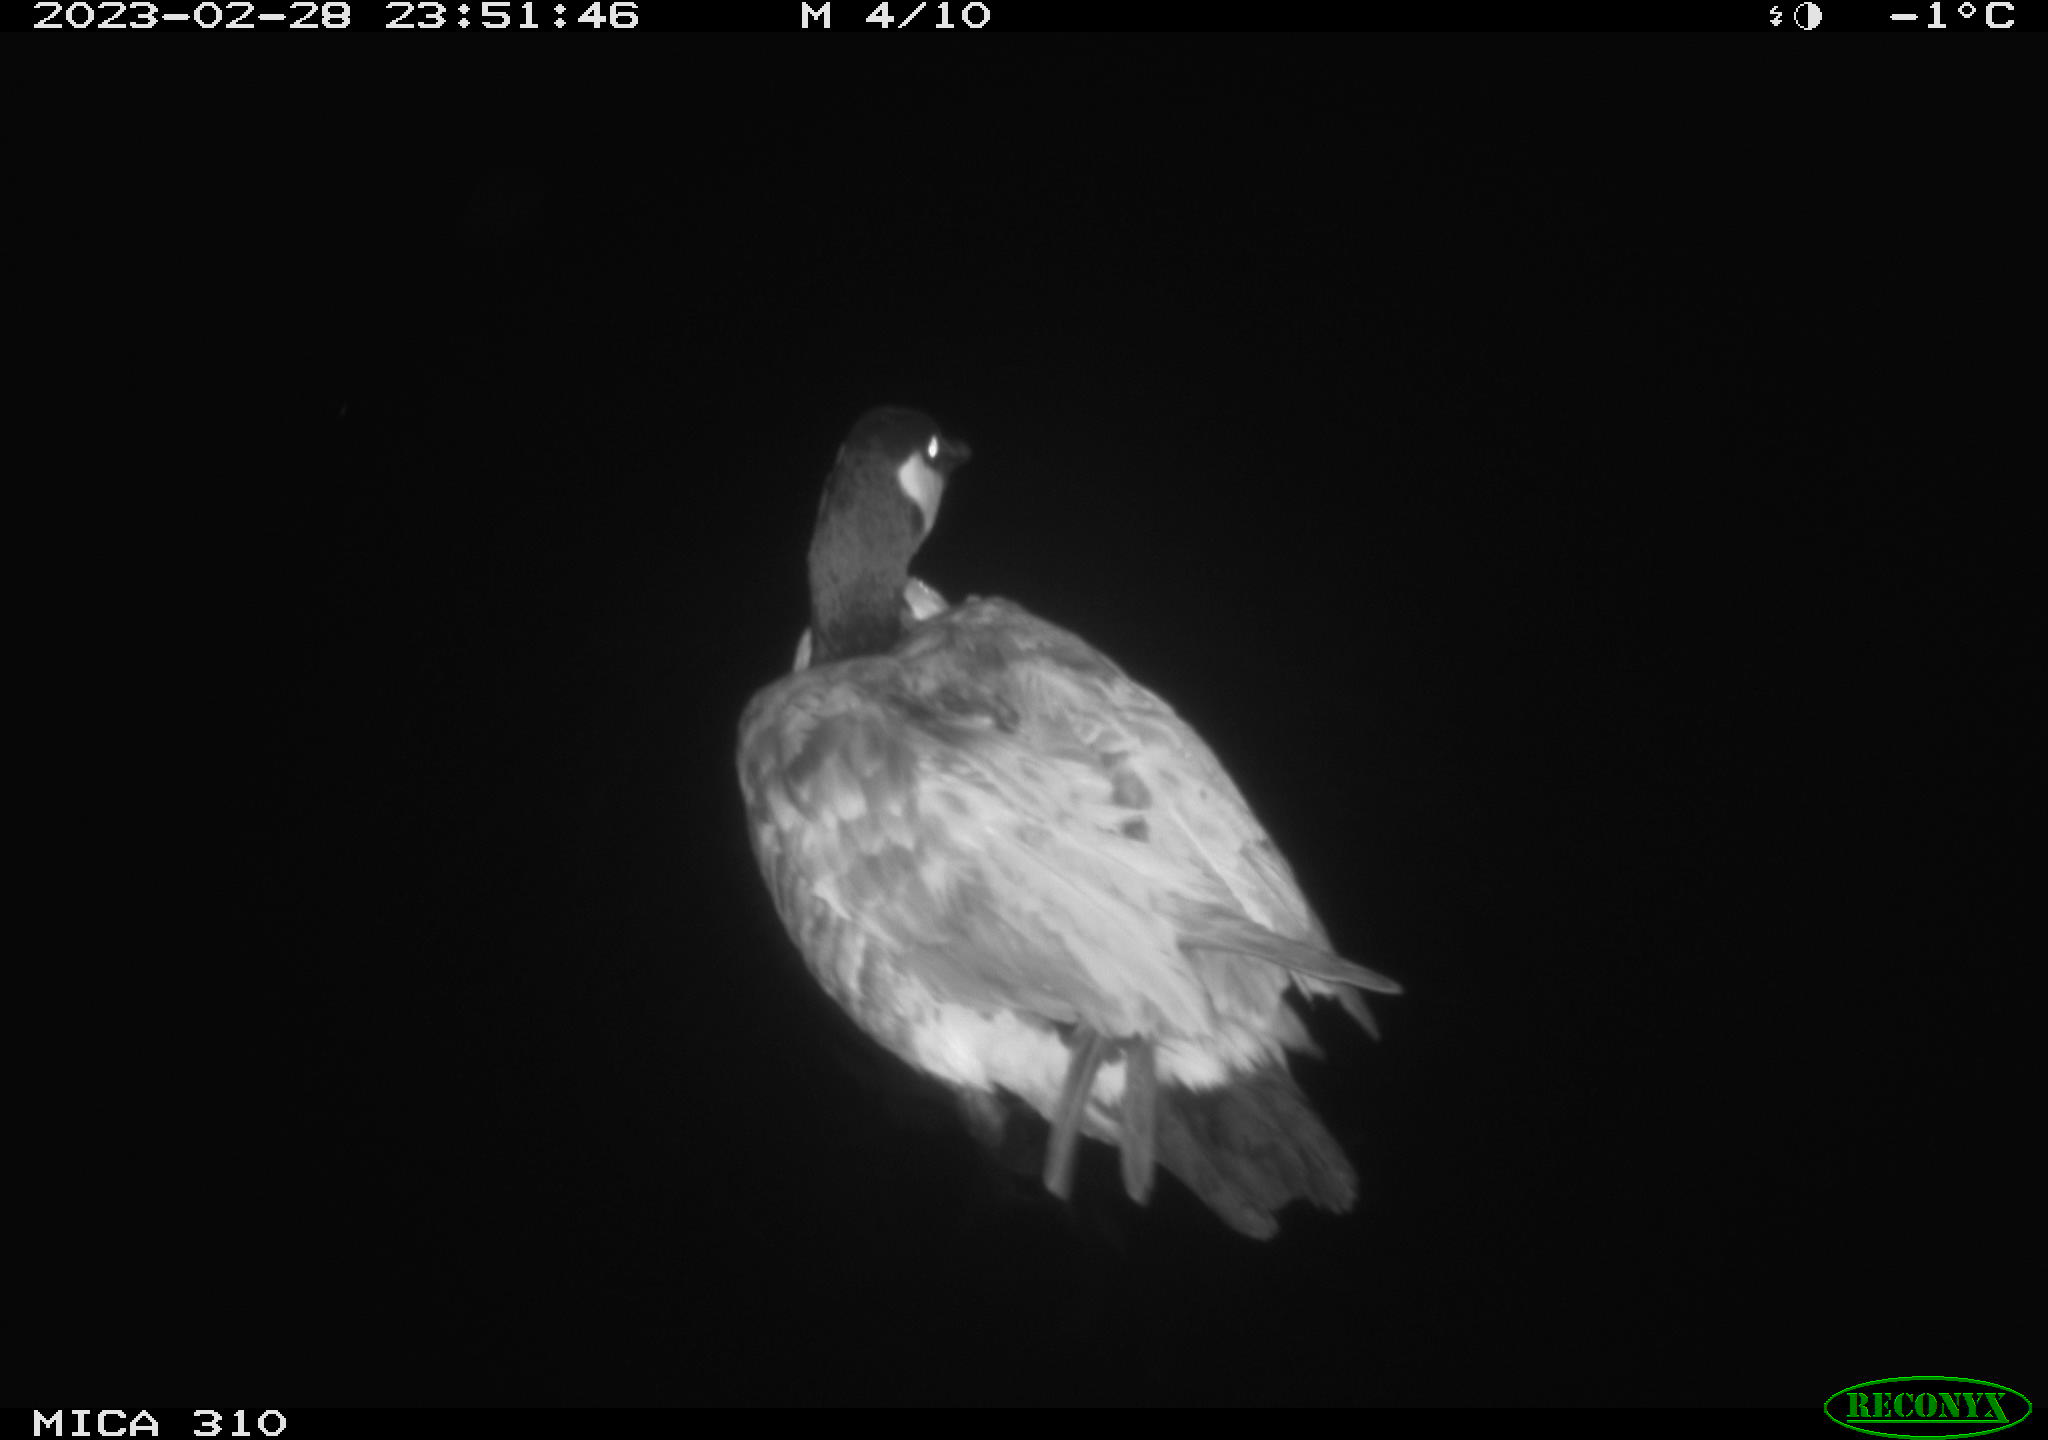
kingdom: Animalia
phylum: Chordata
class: Aves
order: Anseriformes
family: Anatidae
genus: Anas
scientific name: Anas
